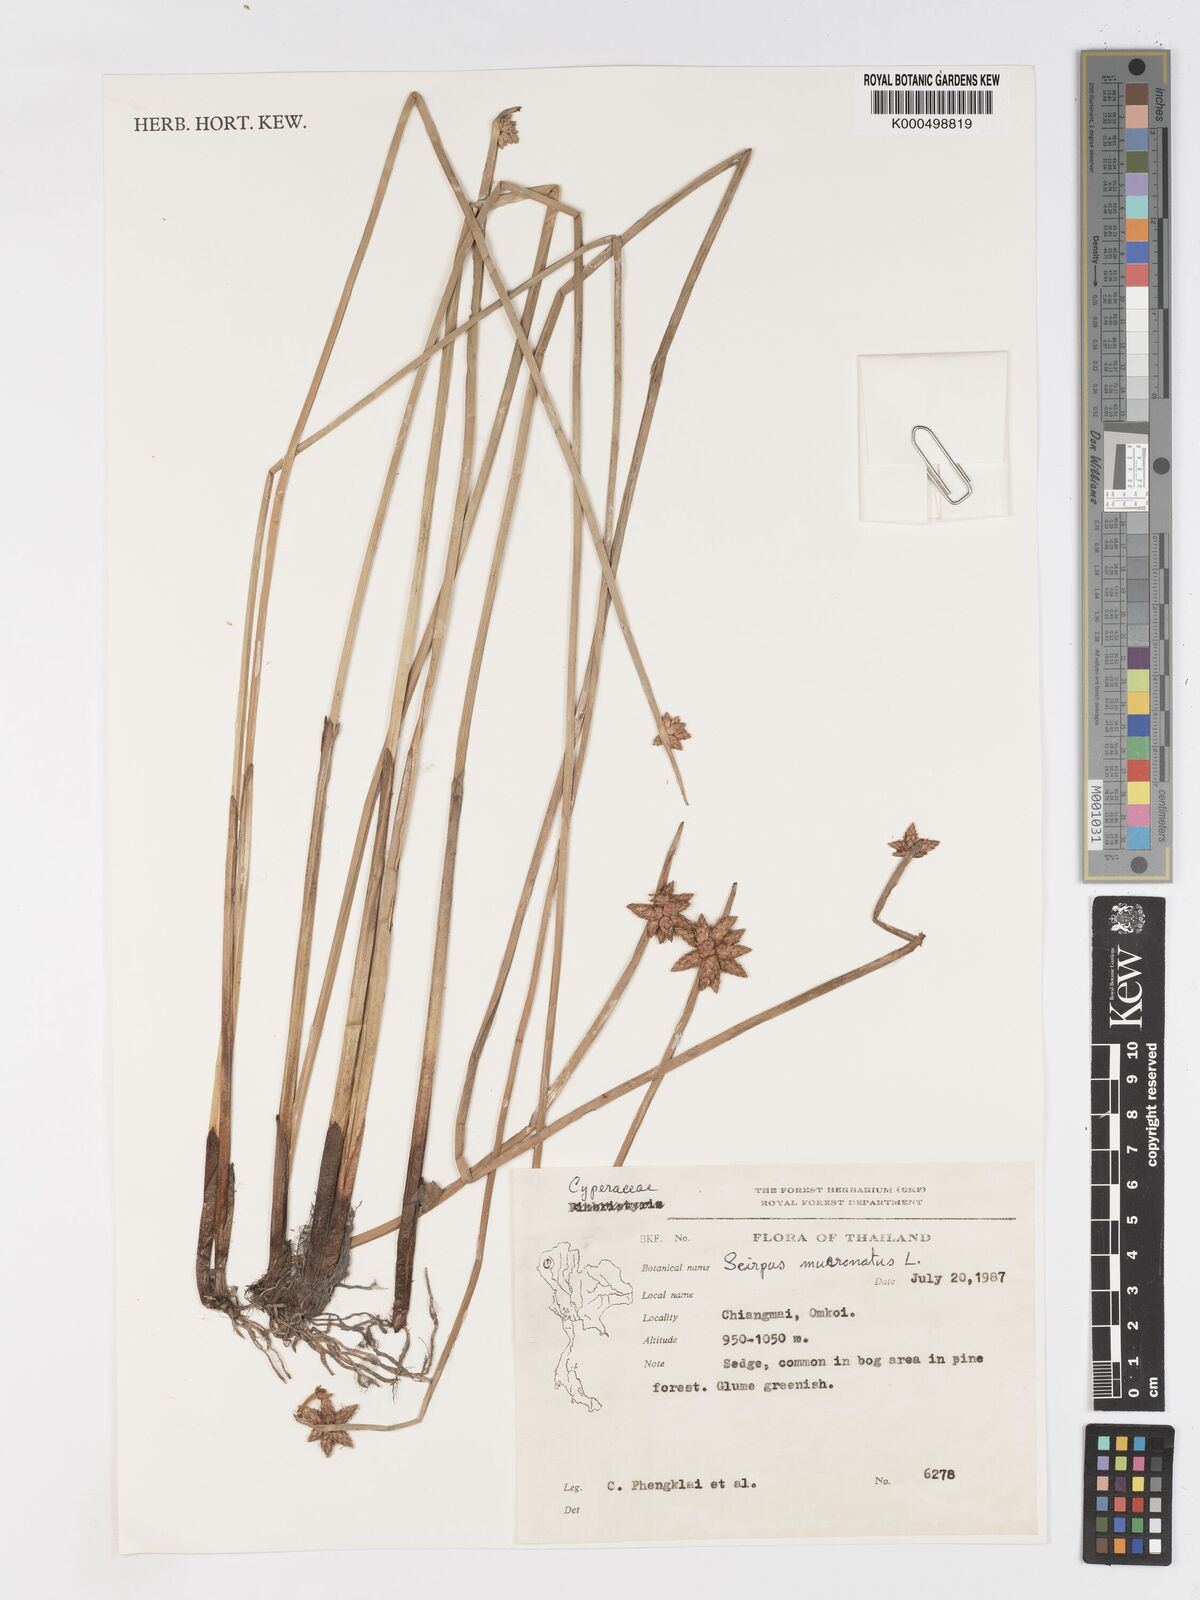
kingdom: Plantae
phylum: Tracheophyta
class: Liliopsida
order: Poales
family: Cyperaceae
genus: Schoenoplectiella
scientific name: Schoenoplectiella mucronata
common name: Bog bulrush
